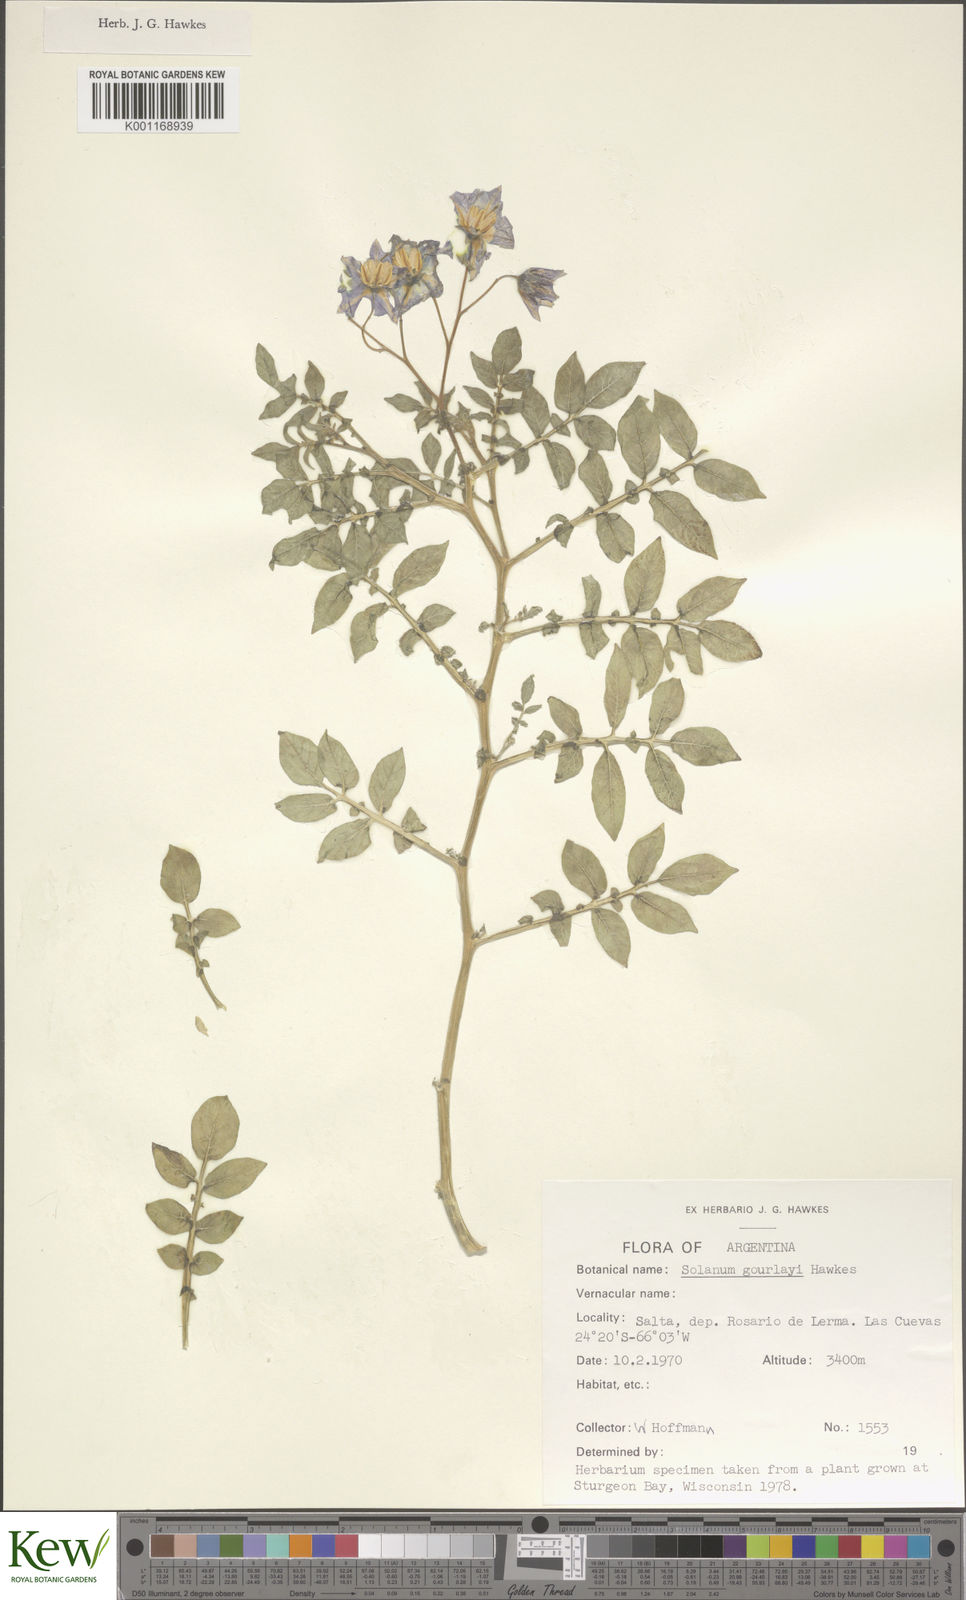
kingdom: Plantae
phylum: Tracheophyta
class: Magnoliopsida
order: Solanales
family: Solanaceae
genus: Solanum
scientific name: Solanum brevicaule
